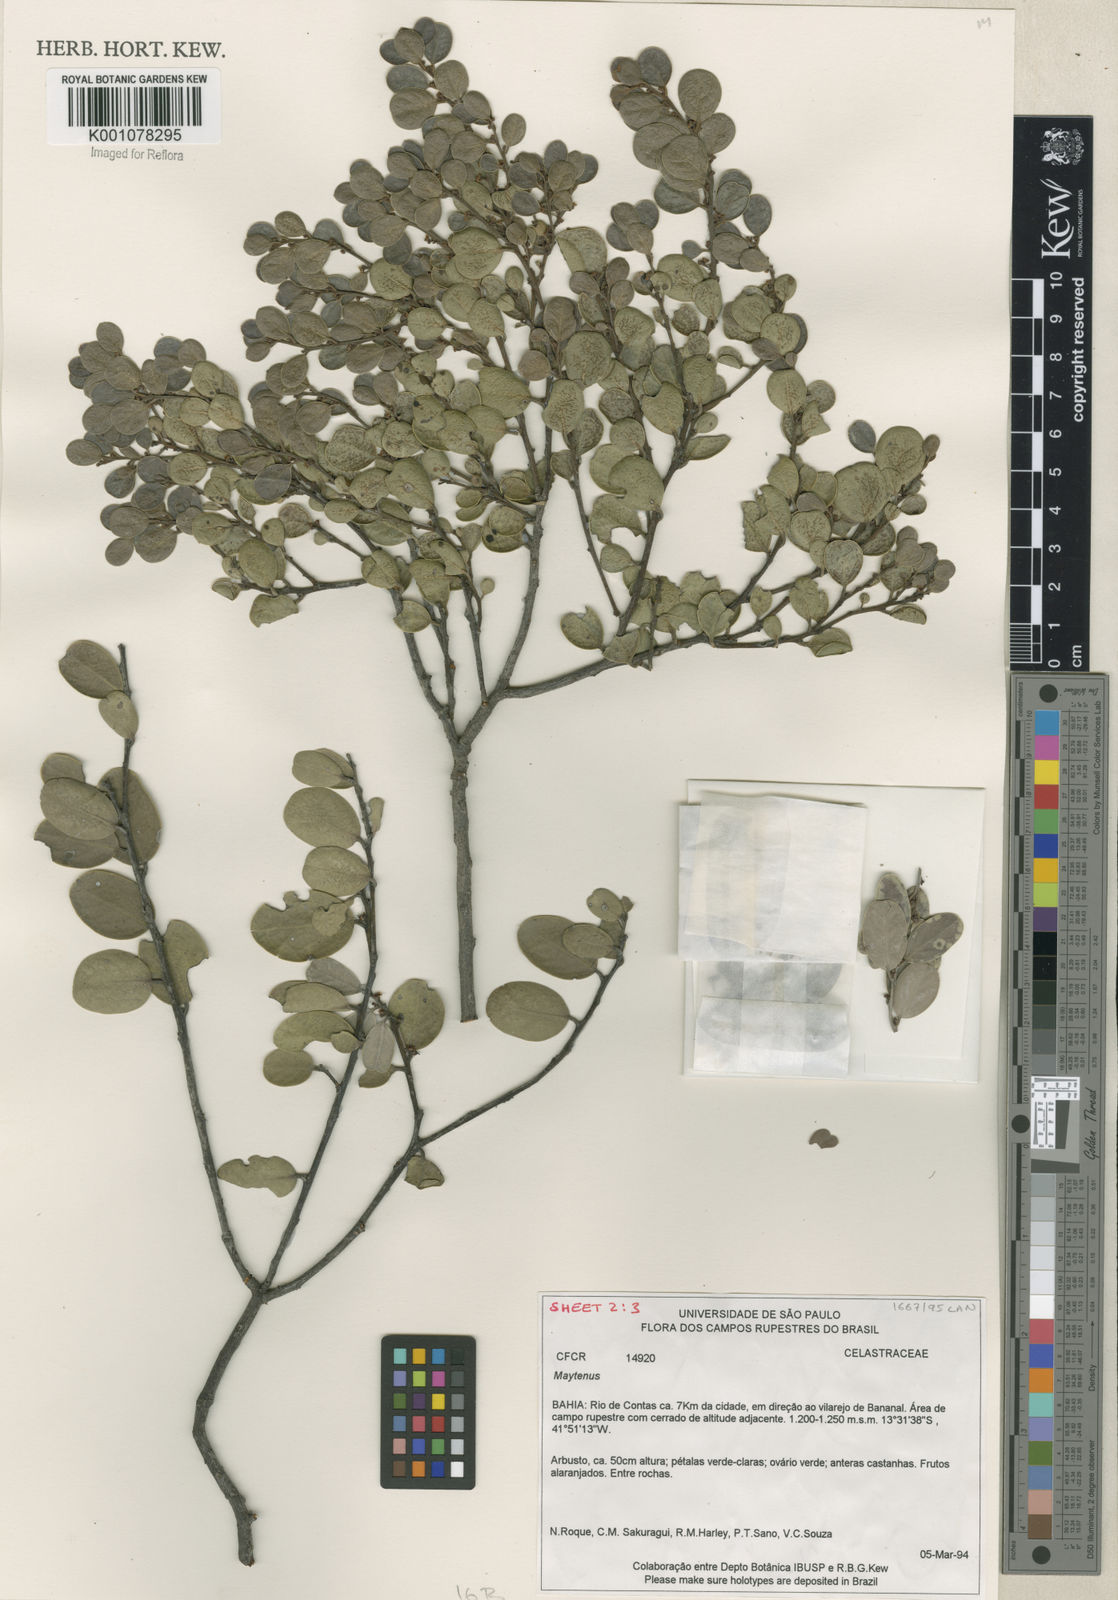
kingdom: Plantae
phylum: Tracheophyta
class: Magnoliopsida
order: Celastrales
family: Celastraceae
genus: Maytenus
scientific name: Maytenus
